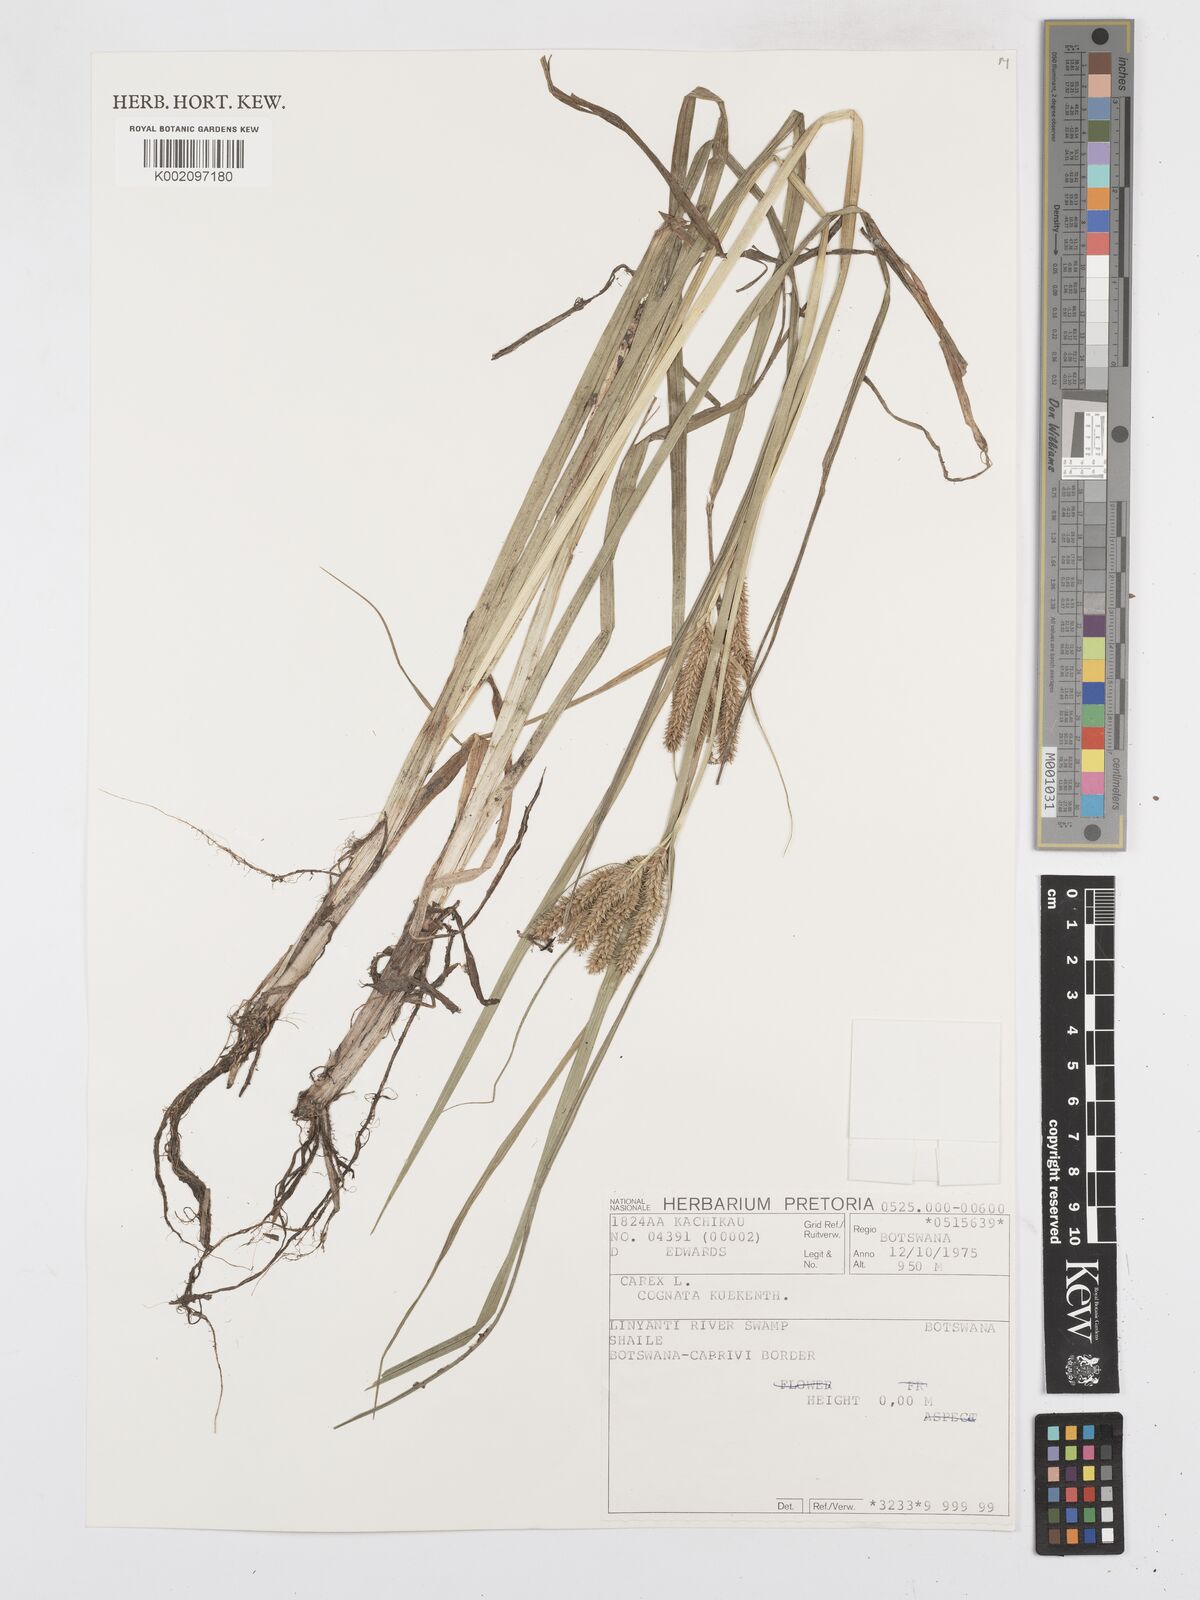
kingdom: Plantae
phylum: Tracheophyta
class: Liliopsida
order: Poales
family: Cyperaceae
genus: Carex
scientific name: Carex cognata
